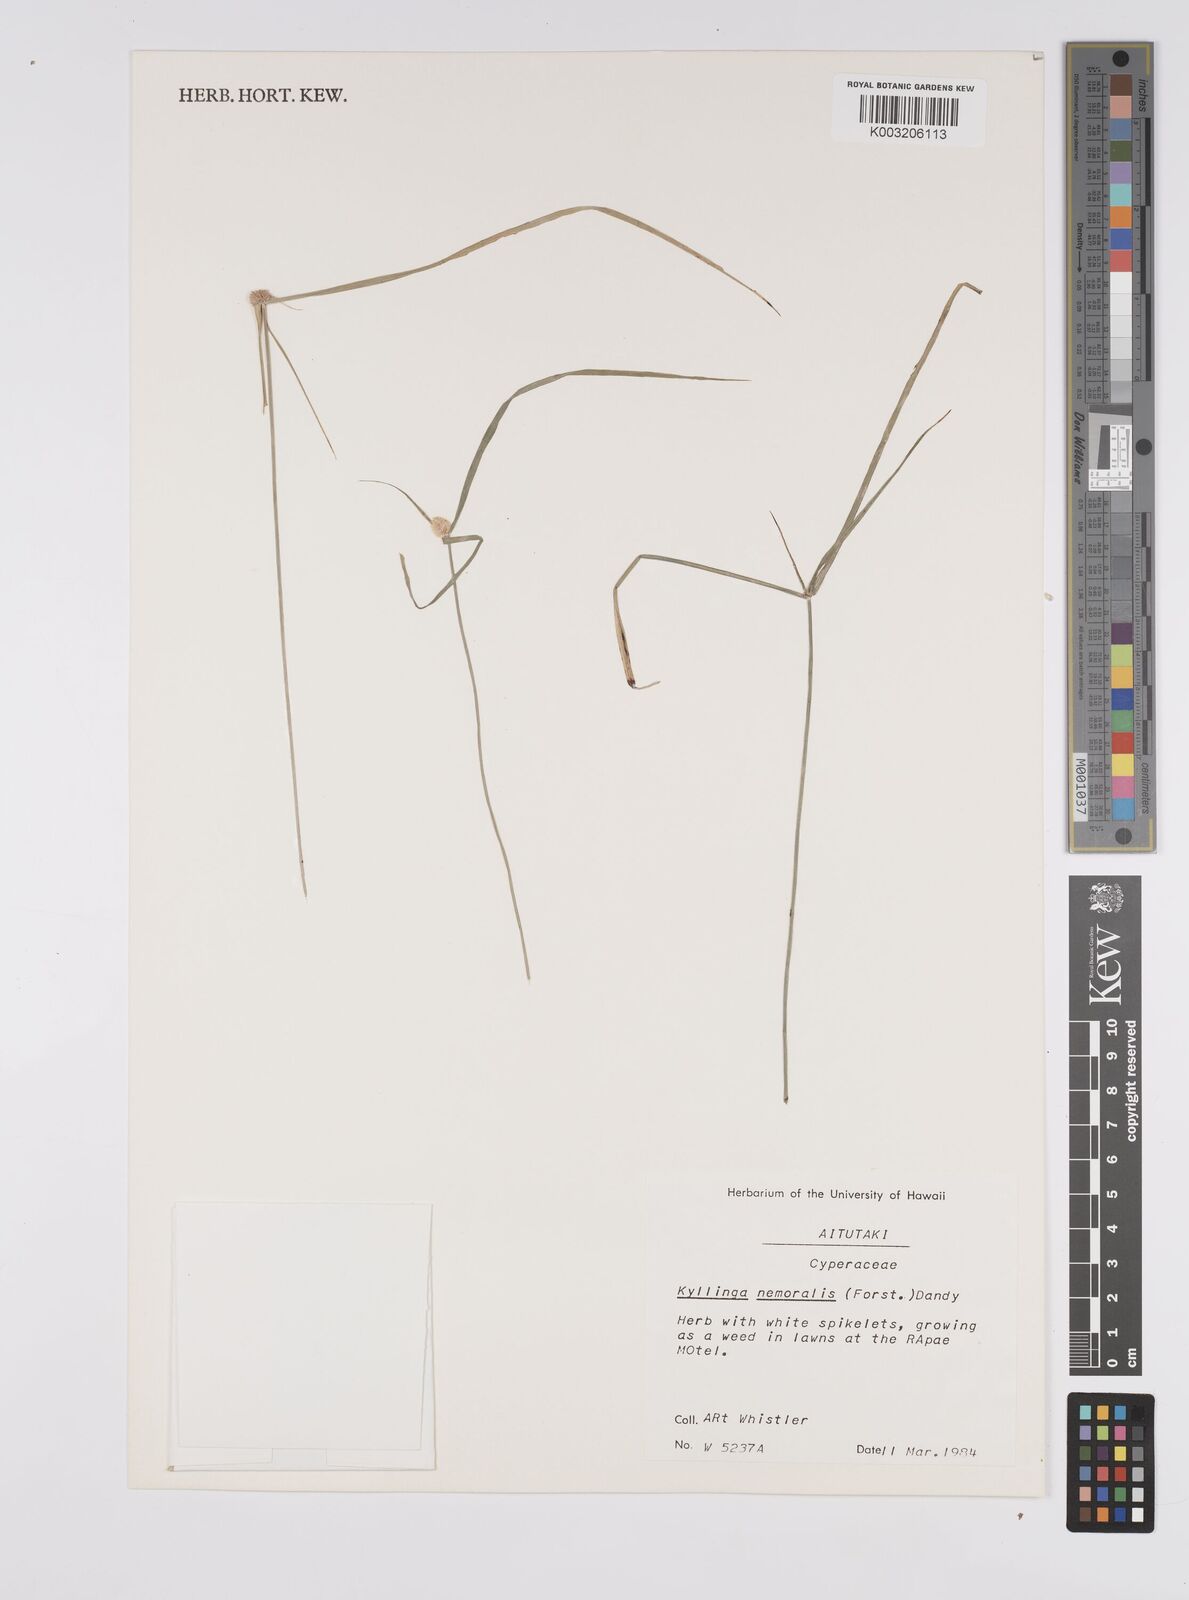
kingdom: Plantae
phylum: Tracheophyta
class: Liliopsida
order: Poales
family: Cyperaceae
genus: Cyperus
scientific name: Cyperus nemoralis
